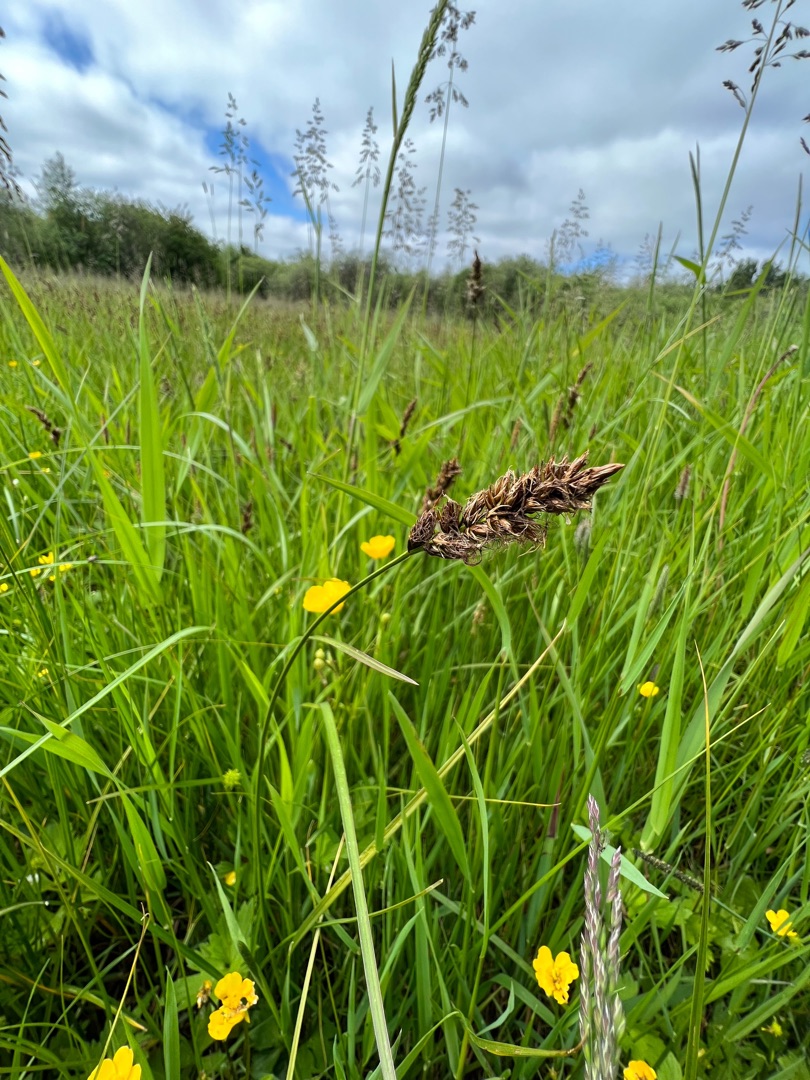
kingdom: Plantae
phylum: Tracheophyta
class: Liliopsida
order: Poales
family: Cyperaceae
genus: Carex
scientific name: Carex disticha
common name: Toradet star
